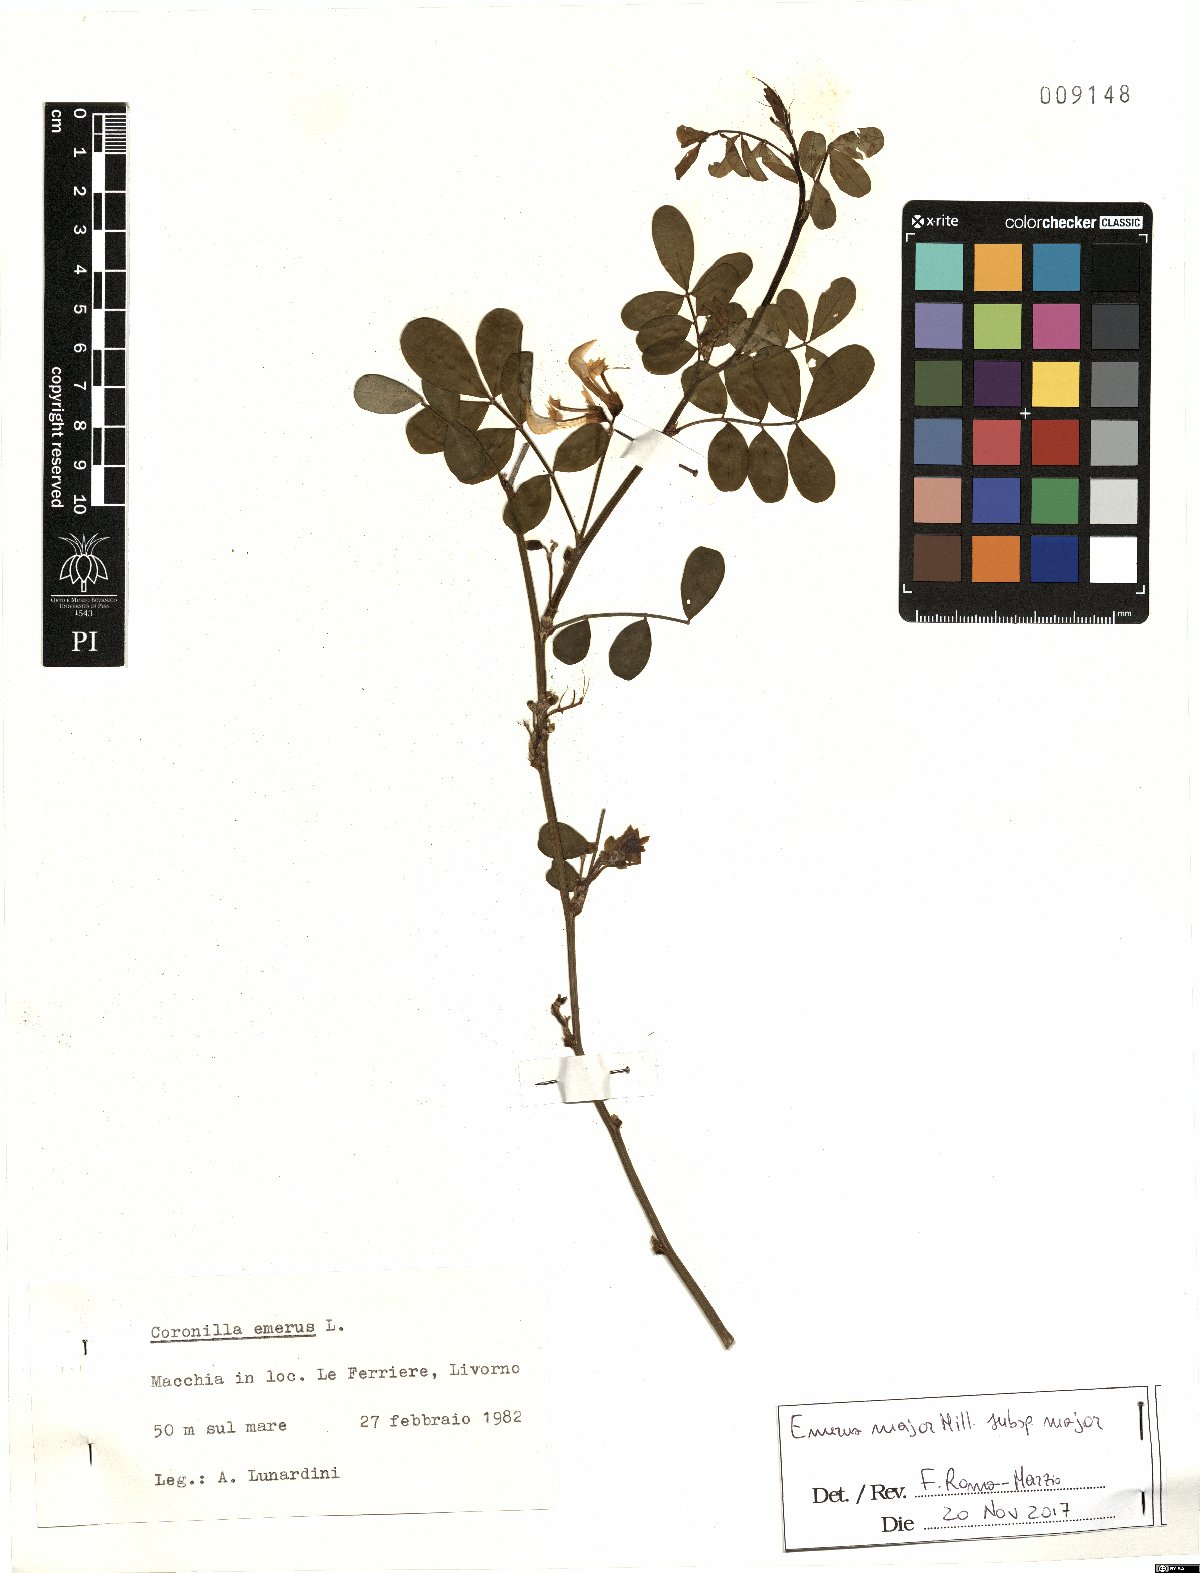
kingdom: Plantae
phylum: Tracheophyta
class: Magnoliopsida
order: Fabales
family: Fabaceae
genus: Hippocrepis
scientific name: Hippocrepis emerus
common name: Scorpion senna
